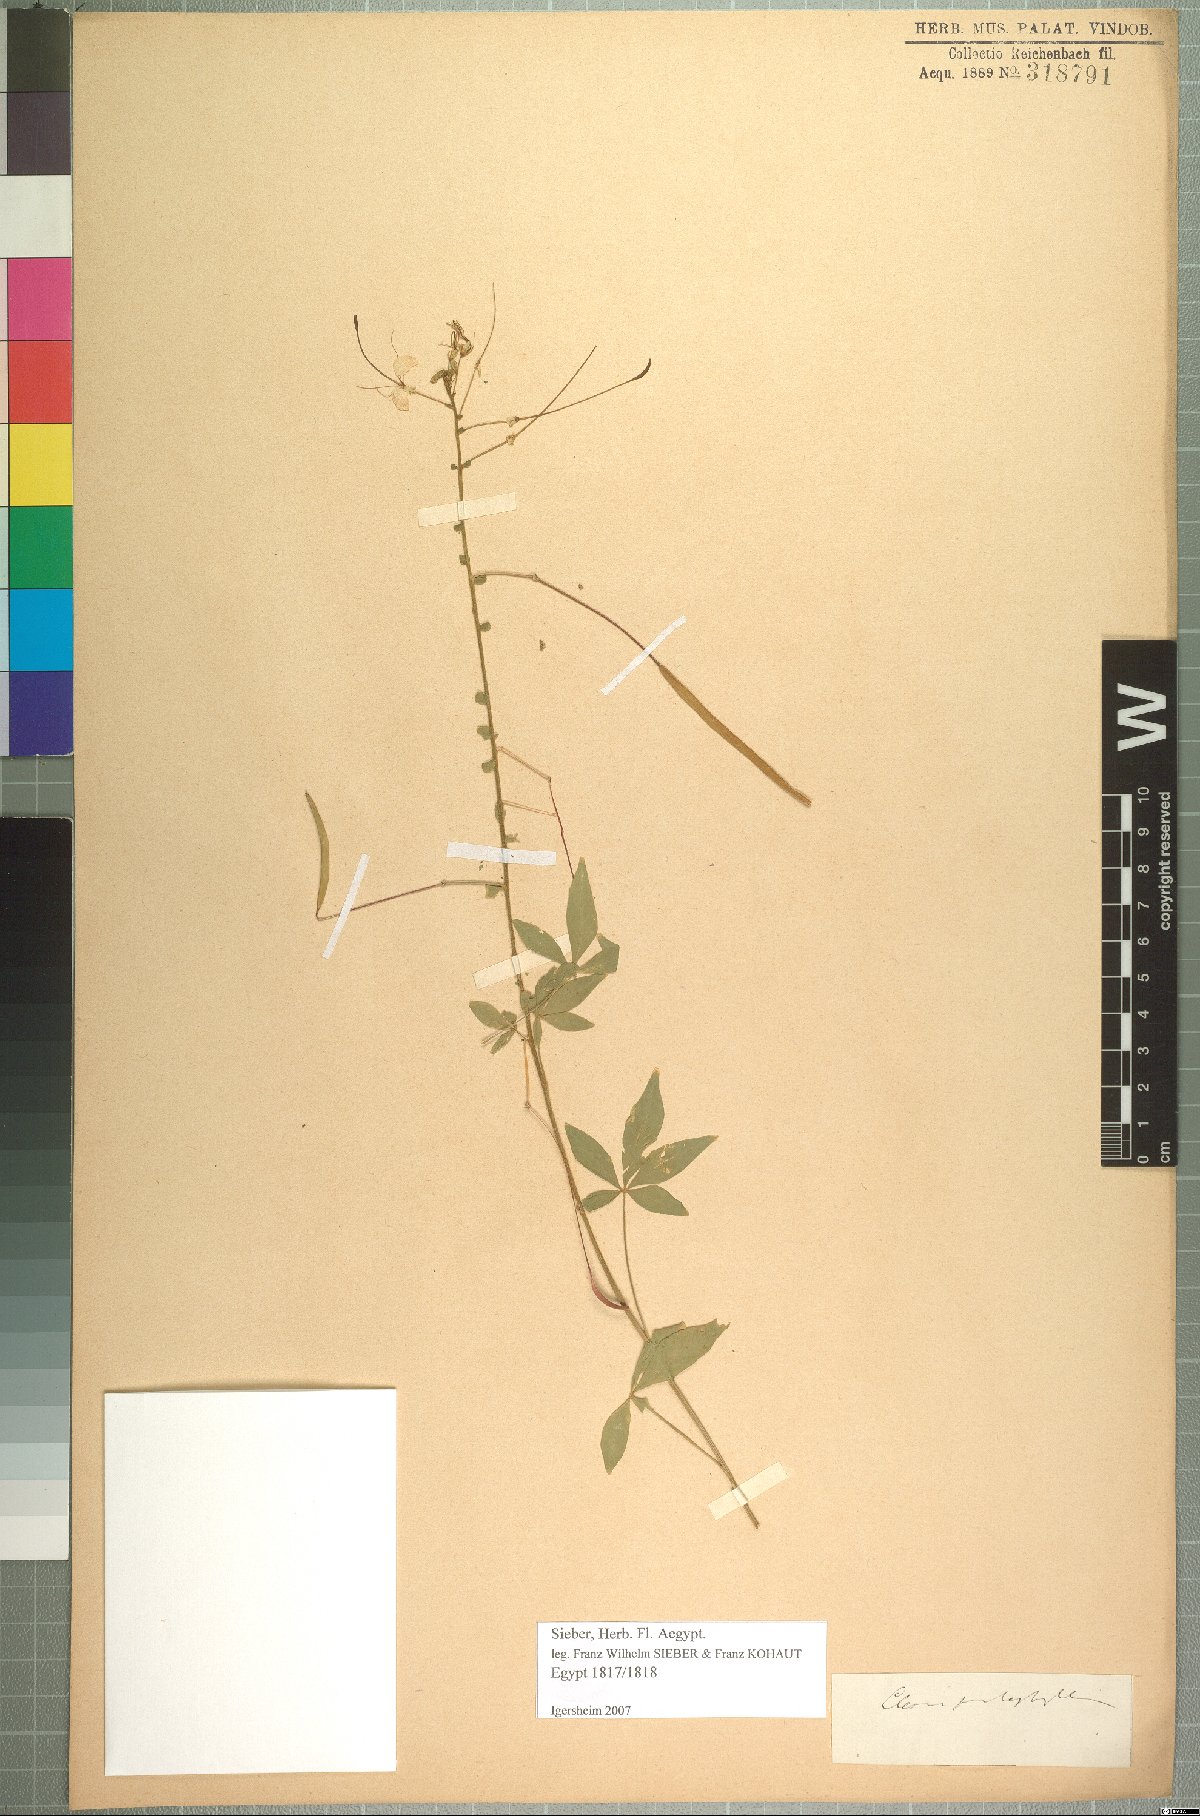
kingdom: Plantae
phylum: Tracheophyta
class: Magnoliopsida
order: Brassicales
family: Cleomaceae
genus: Gynandropsis
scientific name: Gynandropsis gynandra
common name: Spiderwisp
